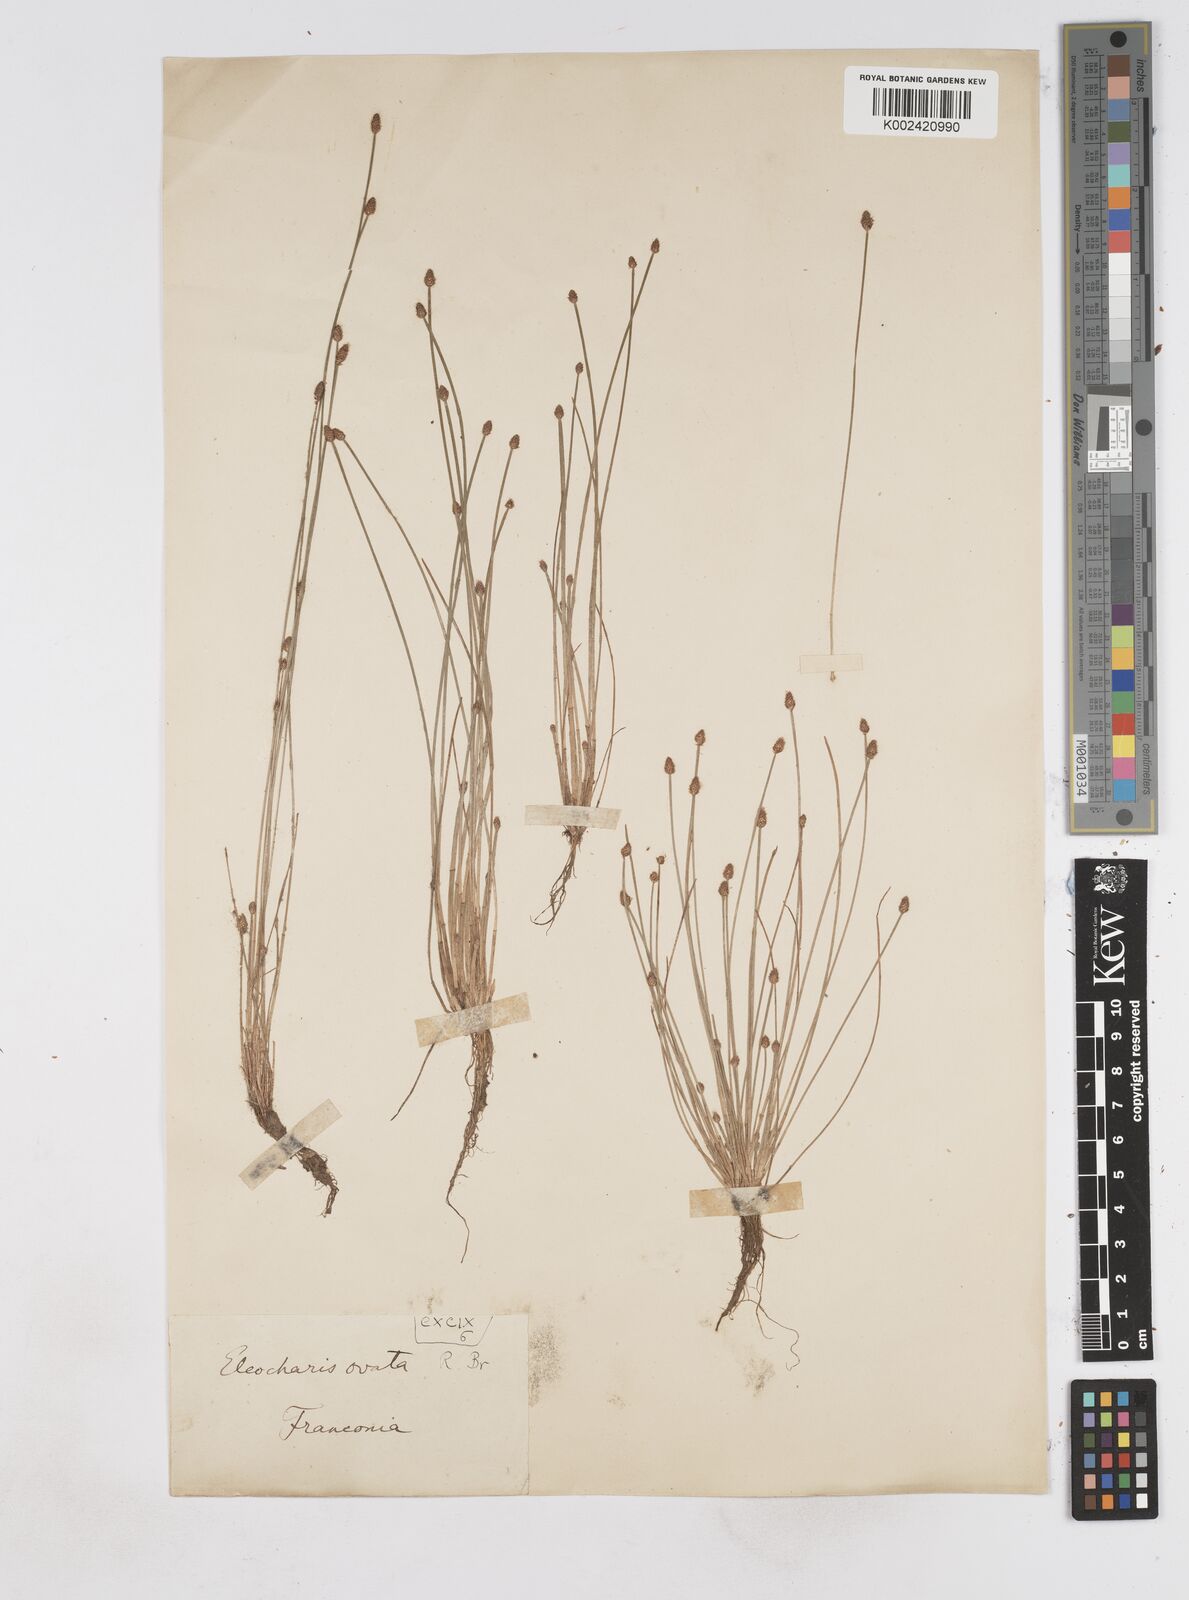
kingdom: Plantae
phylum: Tracheophyta
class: Liliopsida
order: Poales
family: Cyperaceae
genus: Eleocharis
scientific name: Eleocharis ovata
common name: Oval spike-rush
